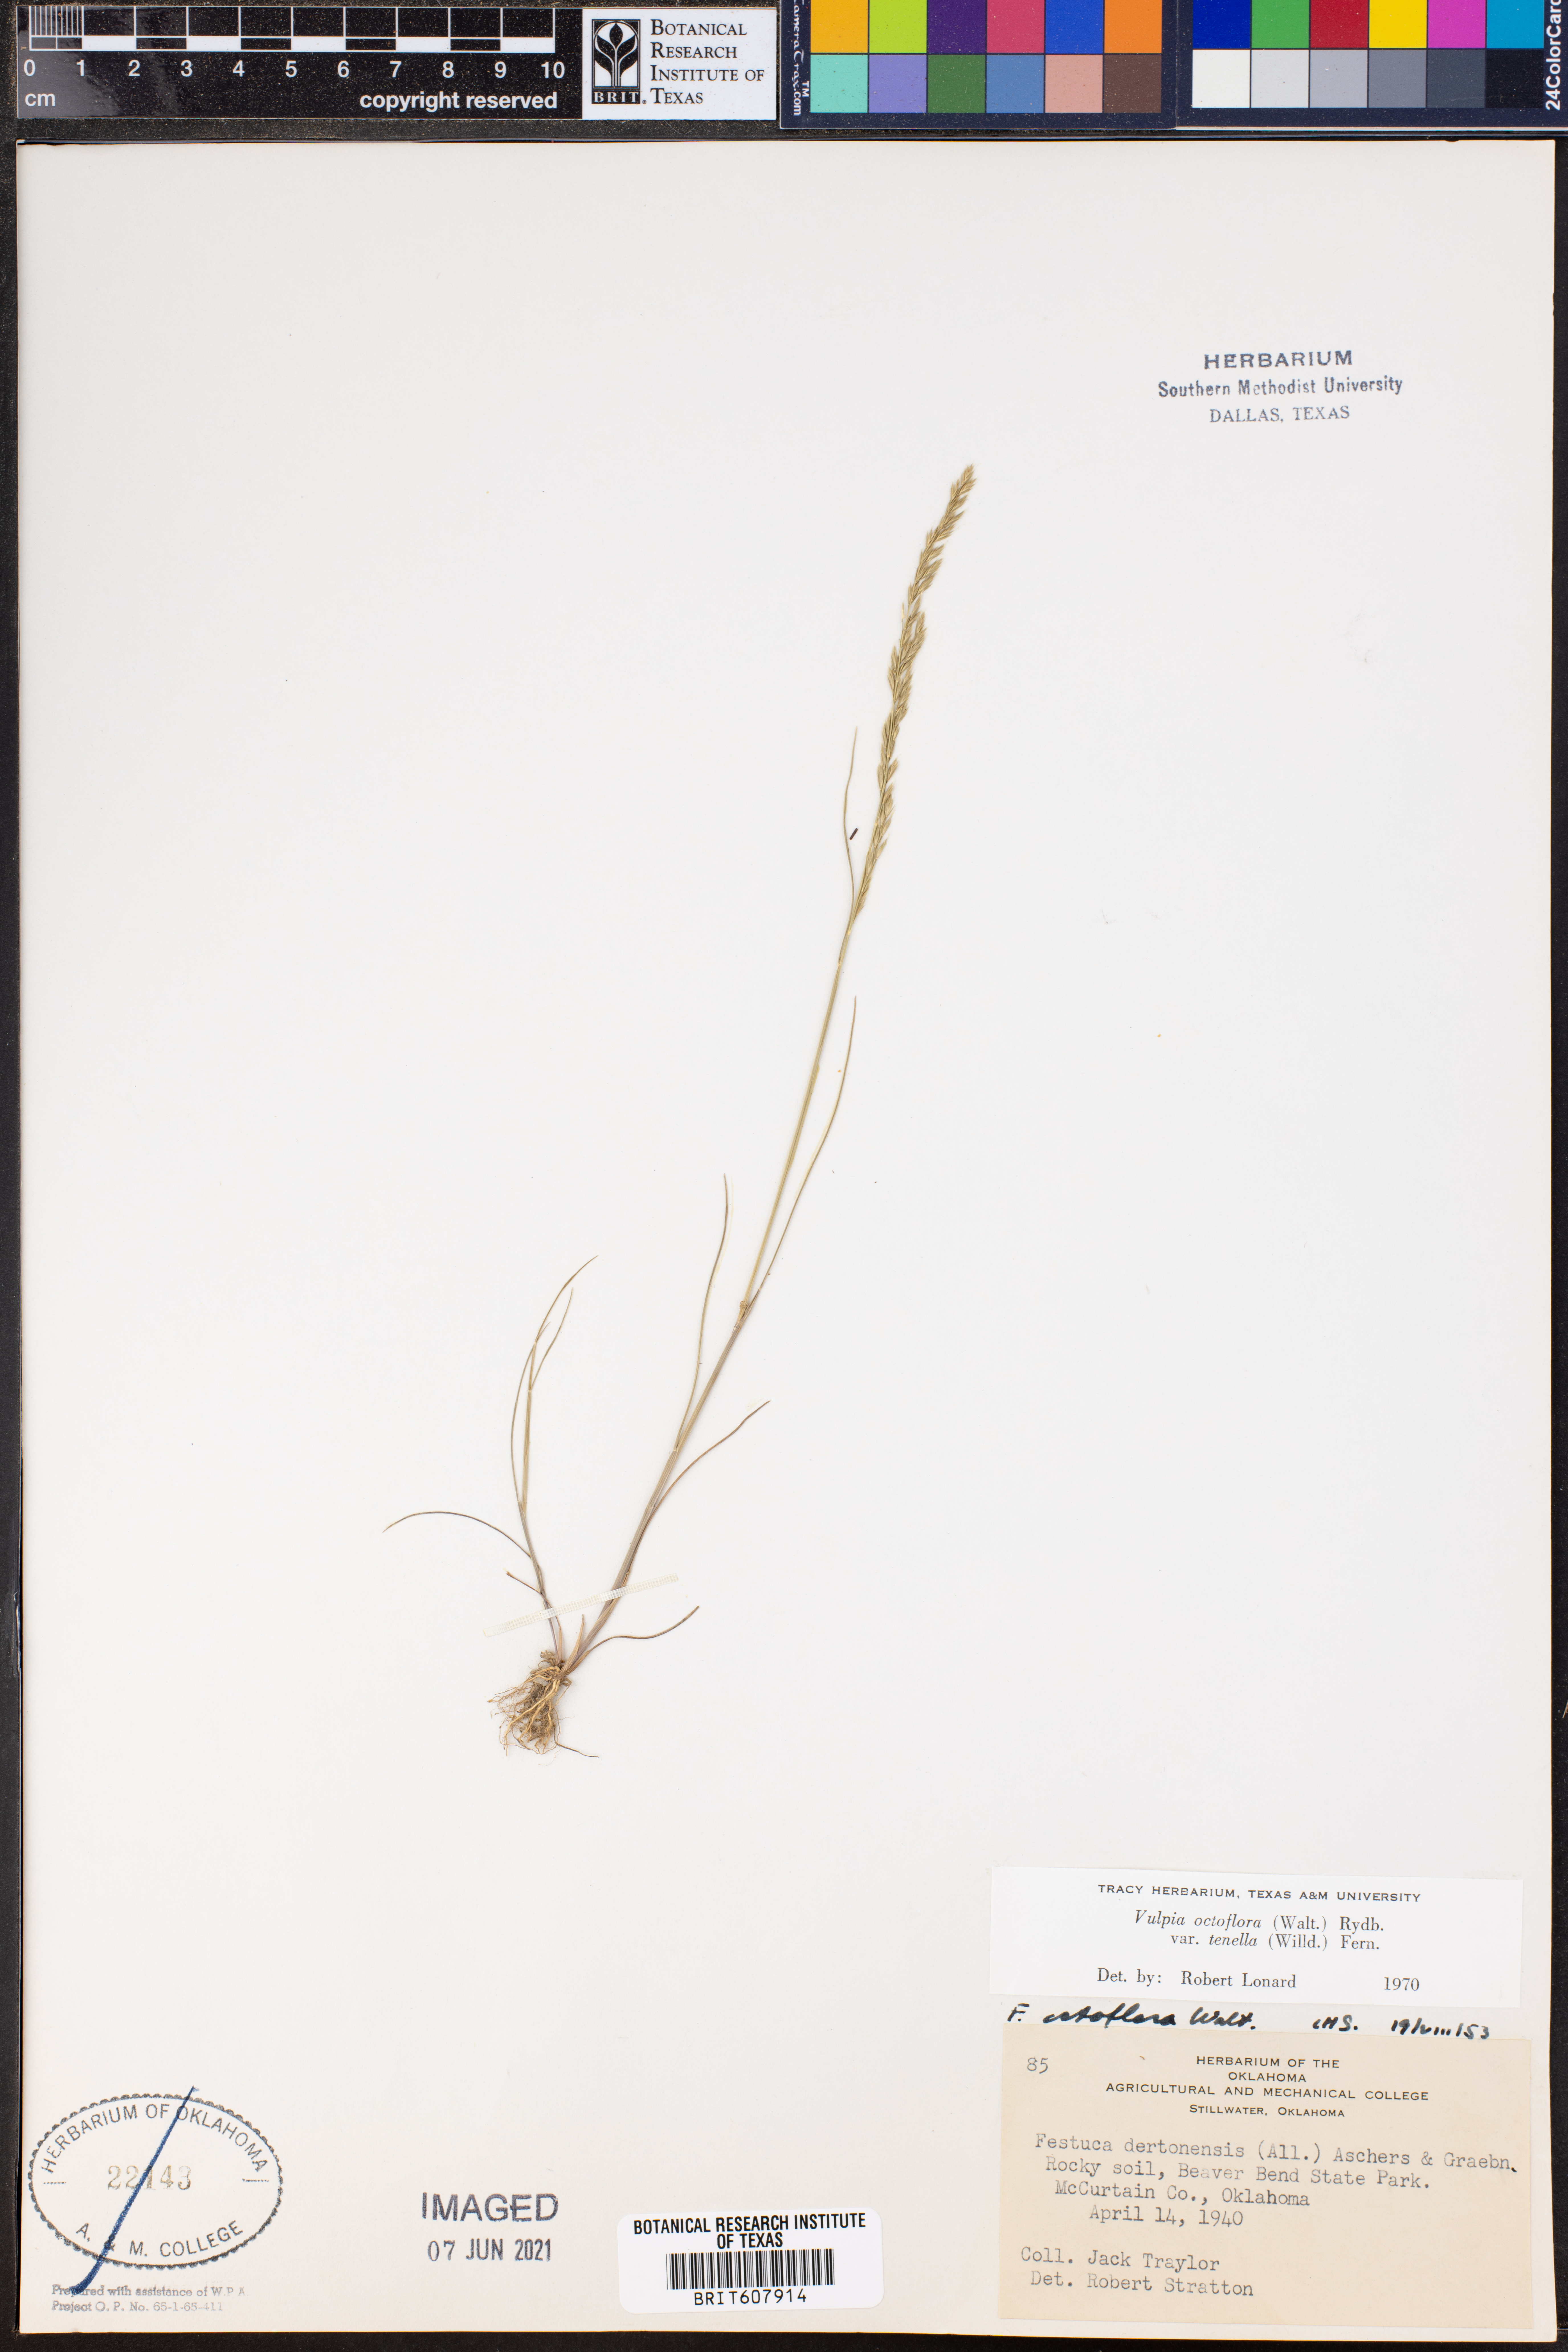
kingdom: Plantae
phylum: Tracheophyta
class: Liliopsida
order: Poales
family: Poaceae
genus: Festuca
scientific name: Festuca octoflora
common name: Sixweeks grass
